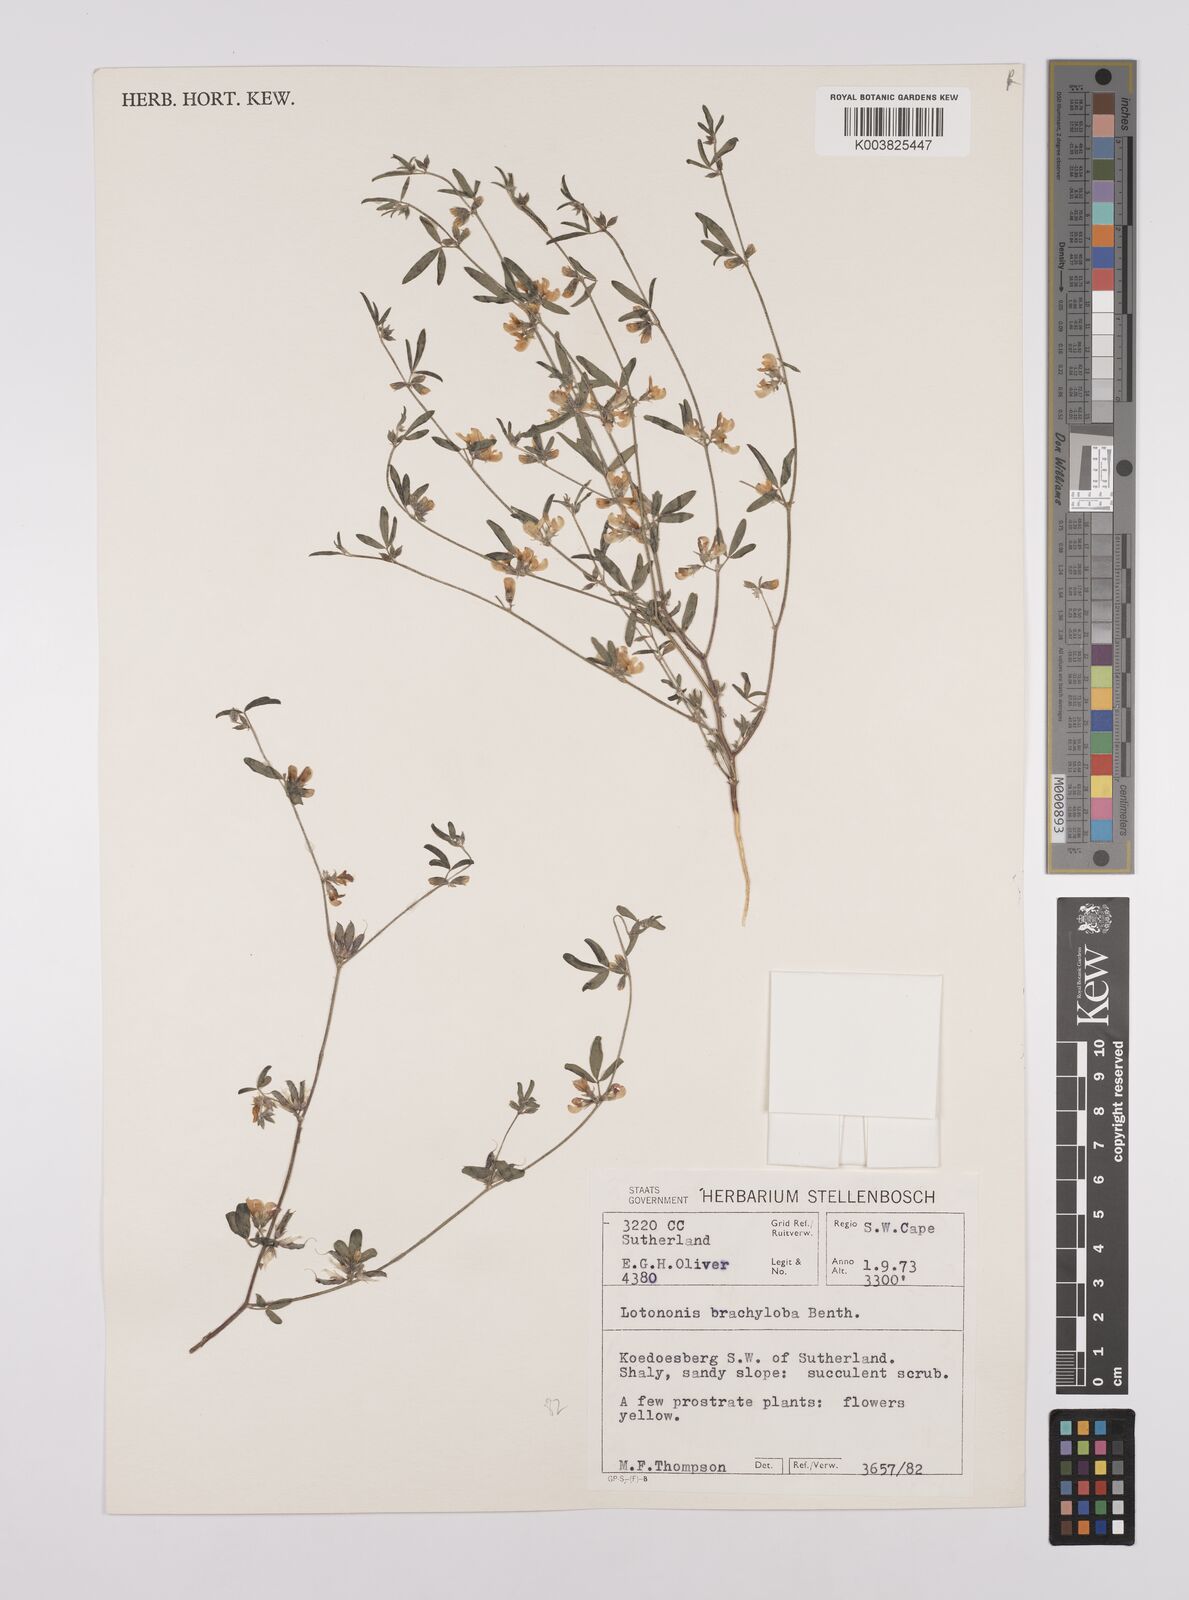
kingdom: Plantae
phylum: Tracheophyta
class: Magnoliopsida
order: Fabales
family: Fabaceae
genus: Lotononis
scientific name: Lotononis parviflora
